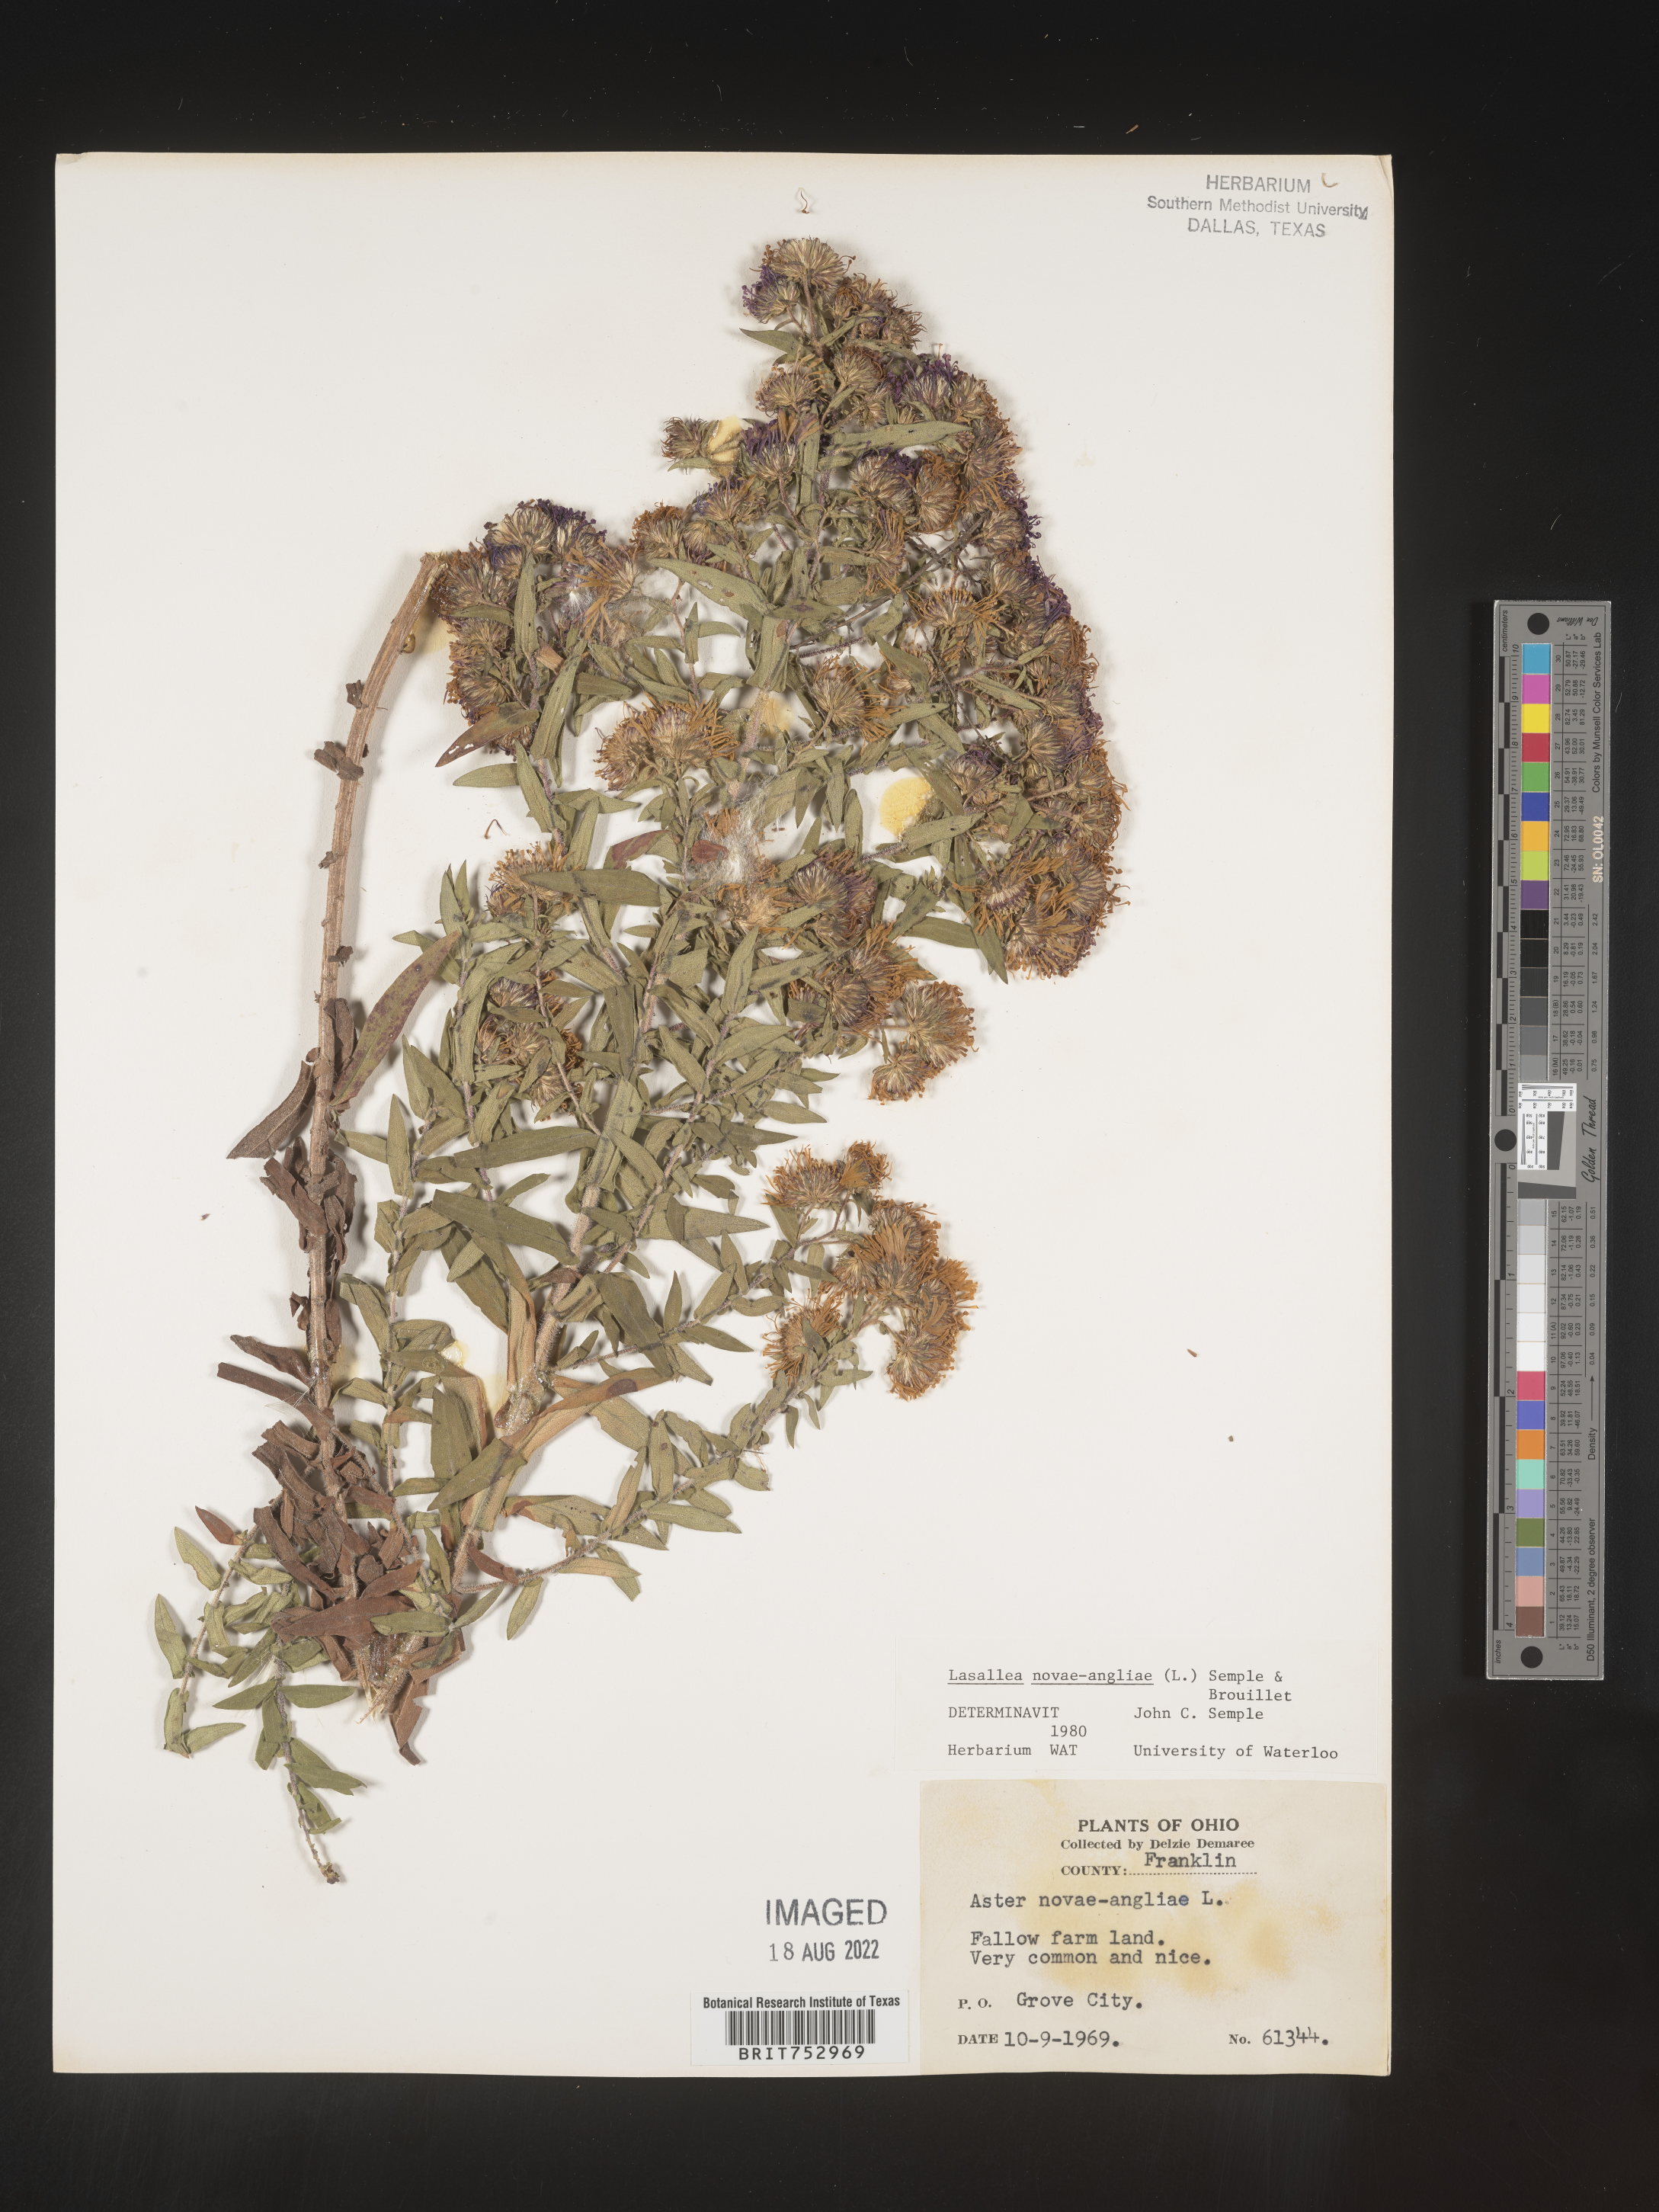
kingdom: Plantae
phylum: Tracheophyta
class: Magnoliopsida
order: Asterales
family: Asteraceae
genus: Symphyotrichum
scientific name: Symphyotrichum novae-angliae
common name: Michaelmas daisy
